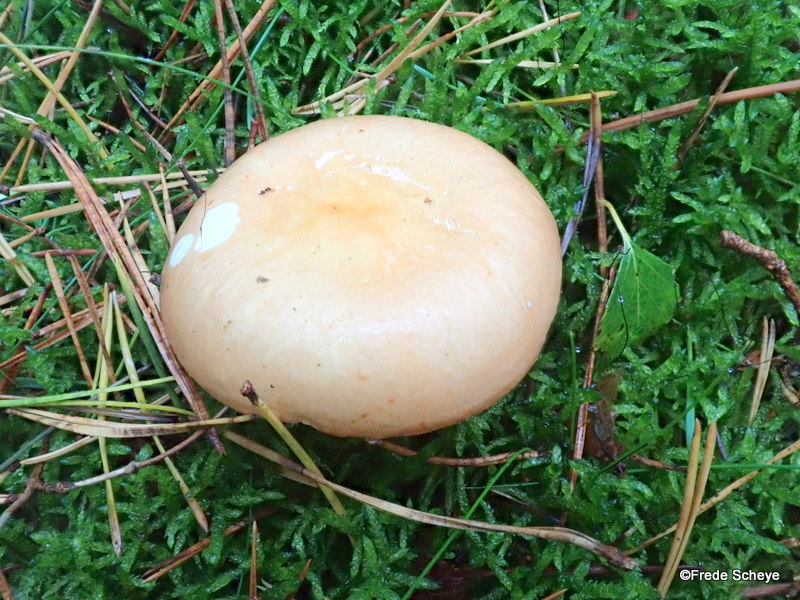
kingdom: Fungi
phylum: Basidiomycota
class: Agaricomycetes
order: Russulales
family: Russulaceae
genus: Russula
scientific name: Russula ochroleuca
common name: okkergul skørhat
